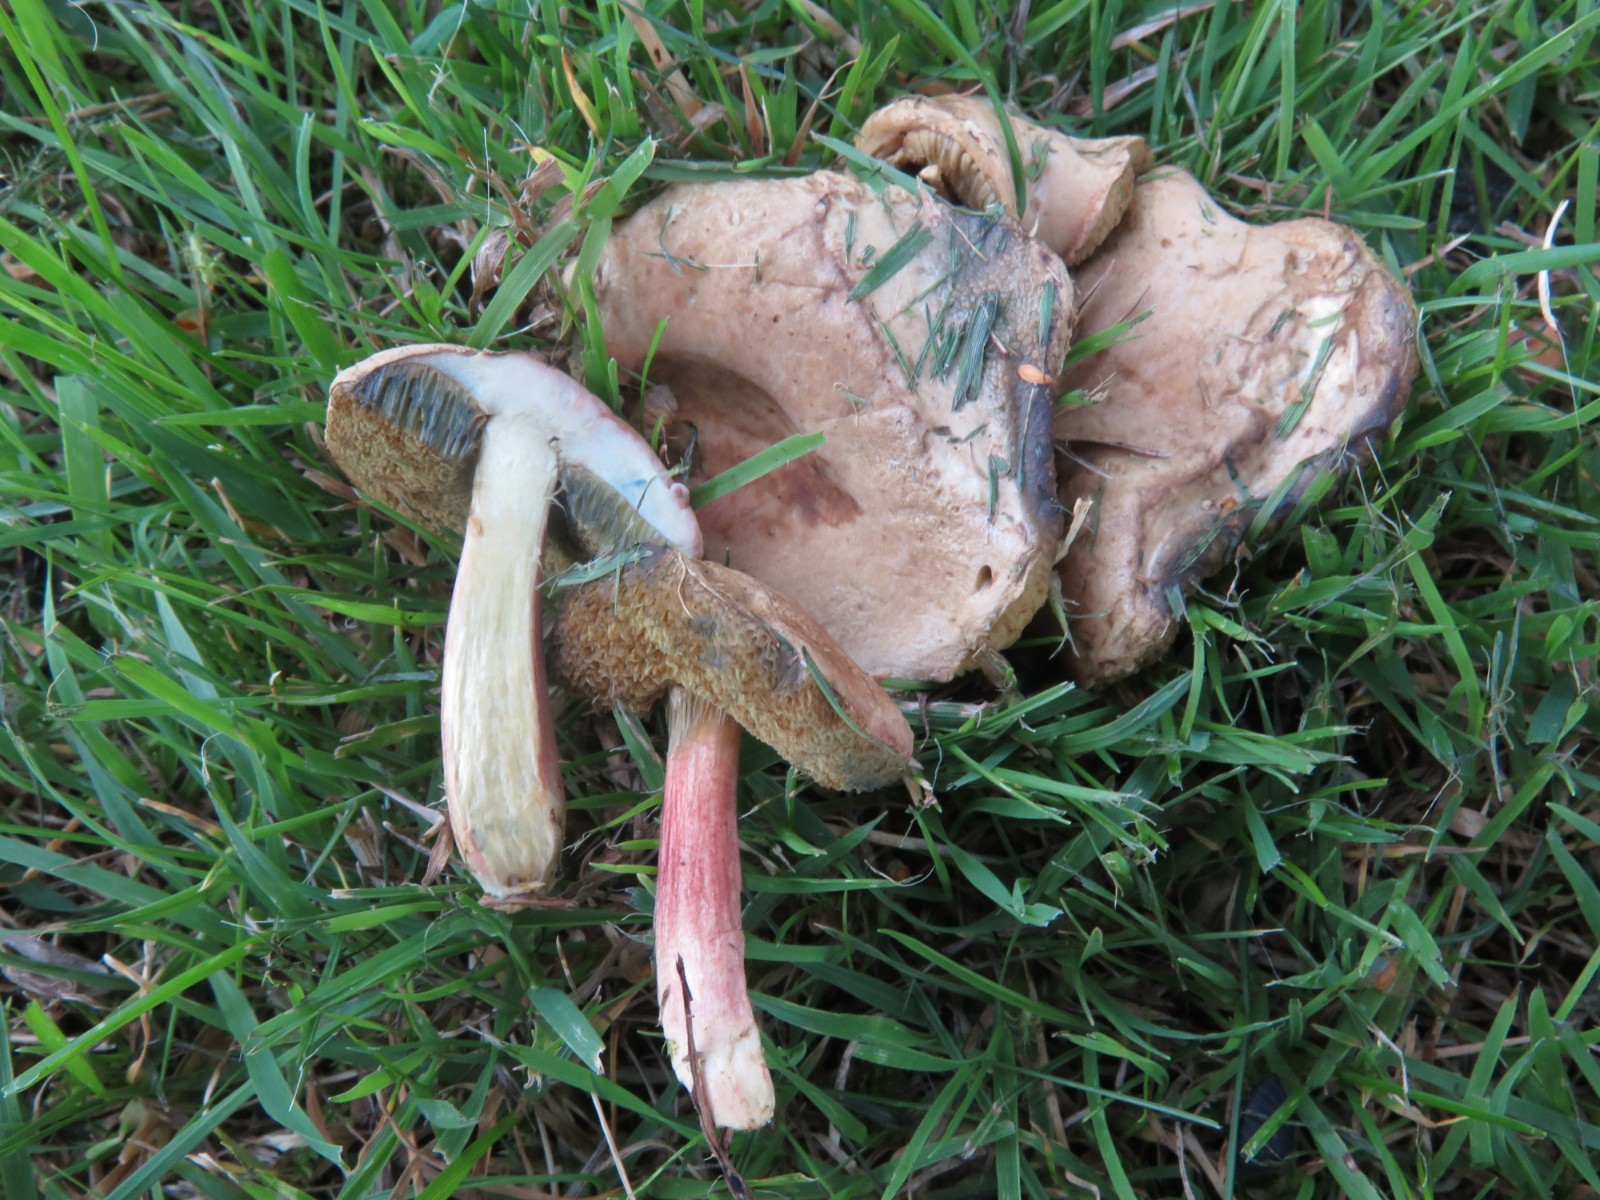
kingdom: Fungi
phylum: Basidiomycota
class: Agaricomycetes
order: Boletales
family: Boletaceae
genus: Hortiboletus
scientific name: Hortiboletus bubalinus
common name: aurora-rørhat
